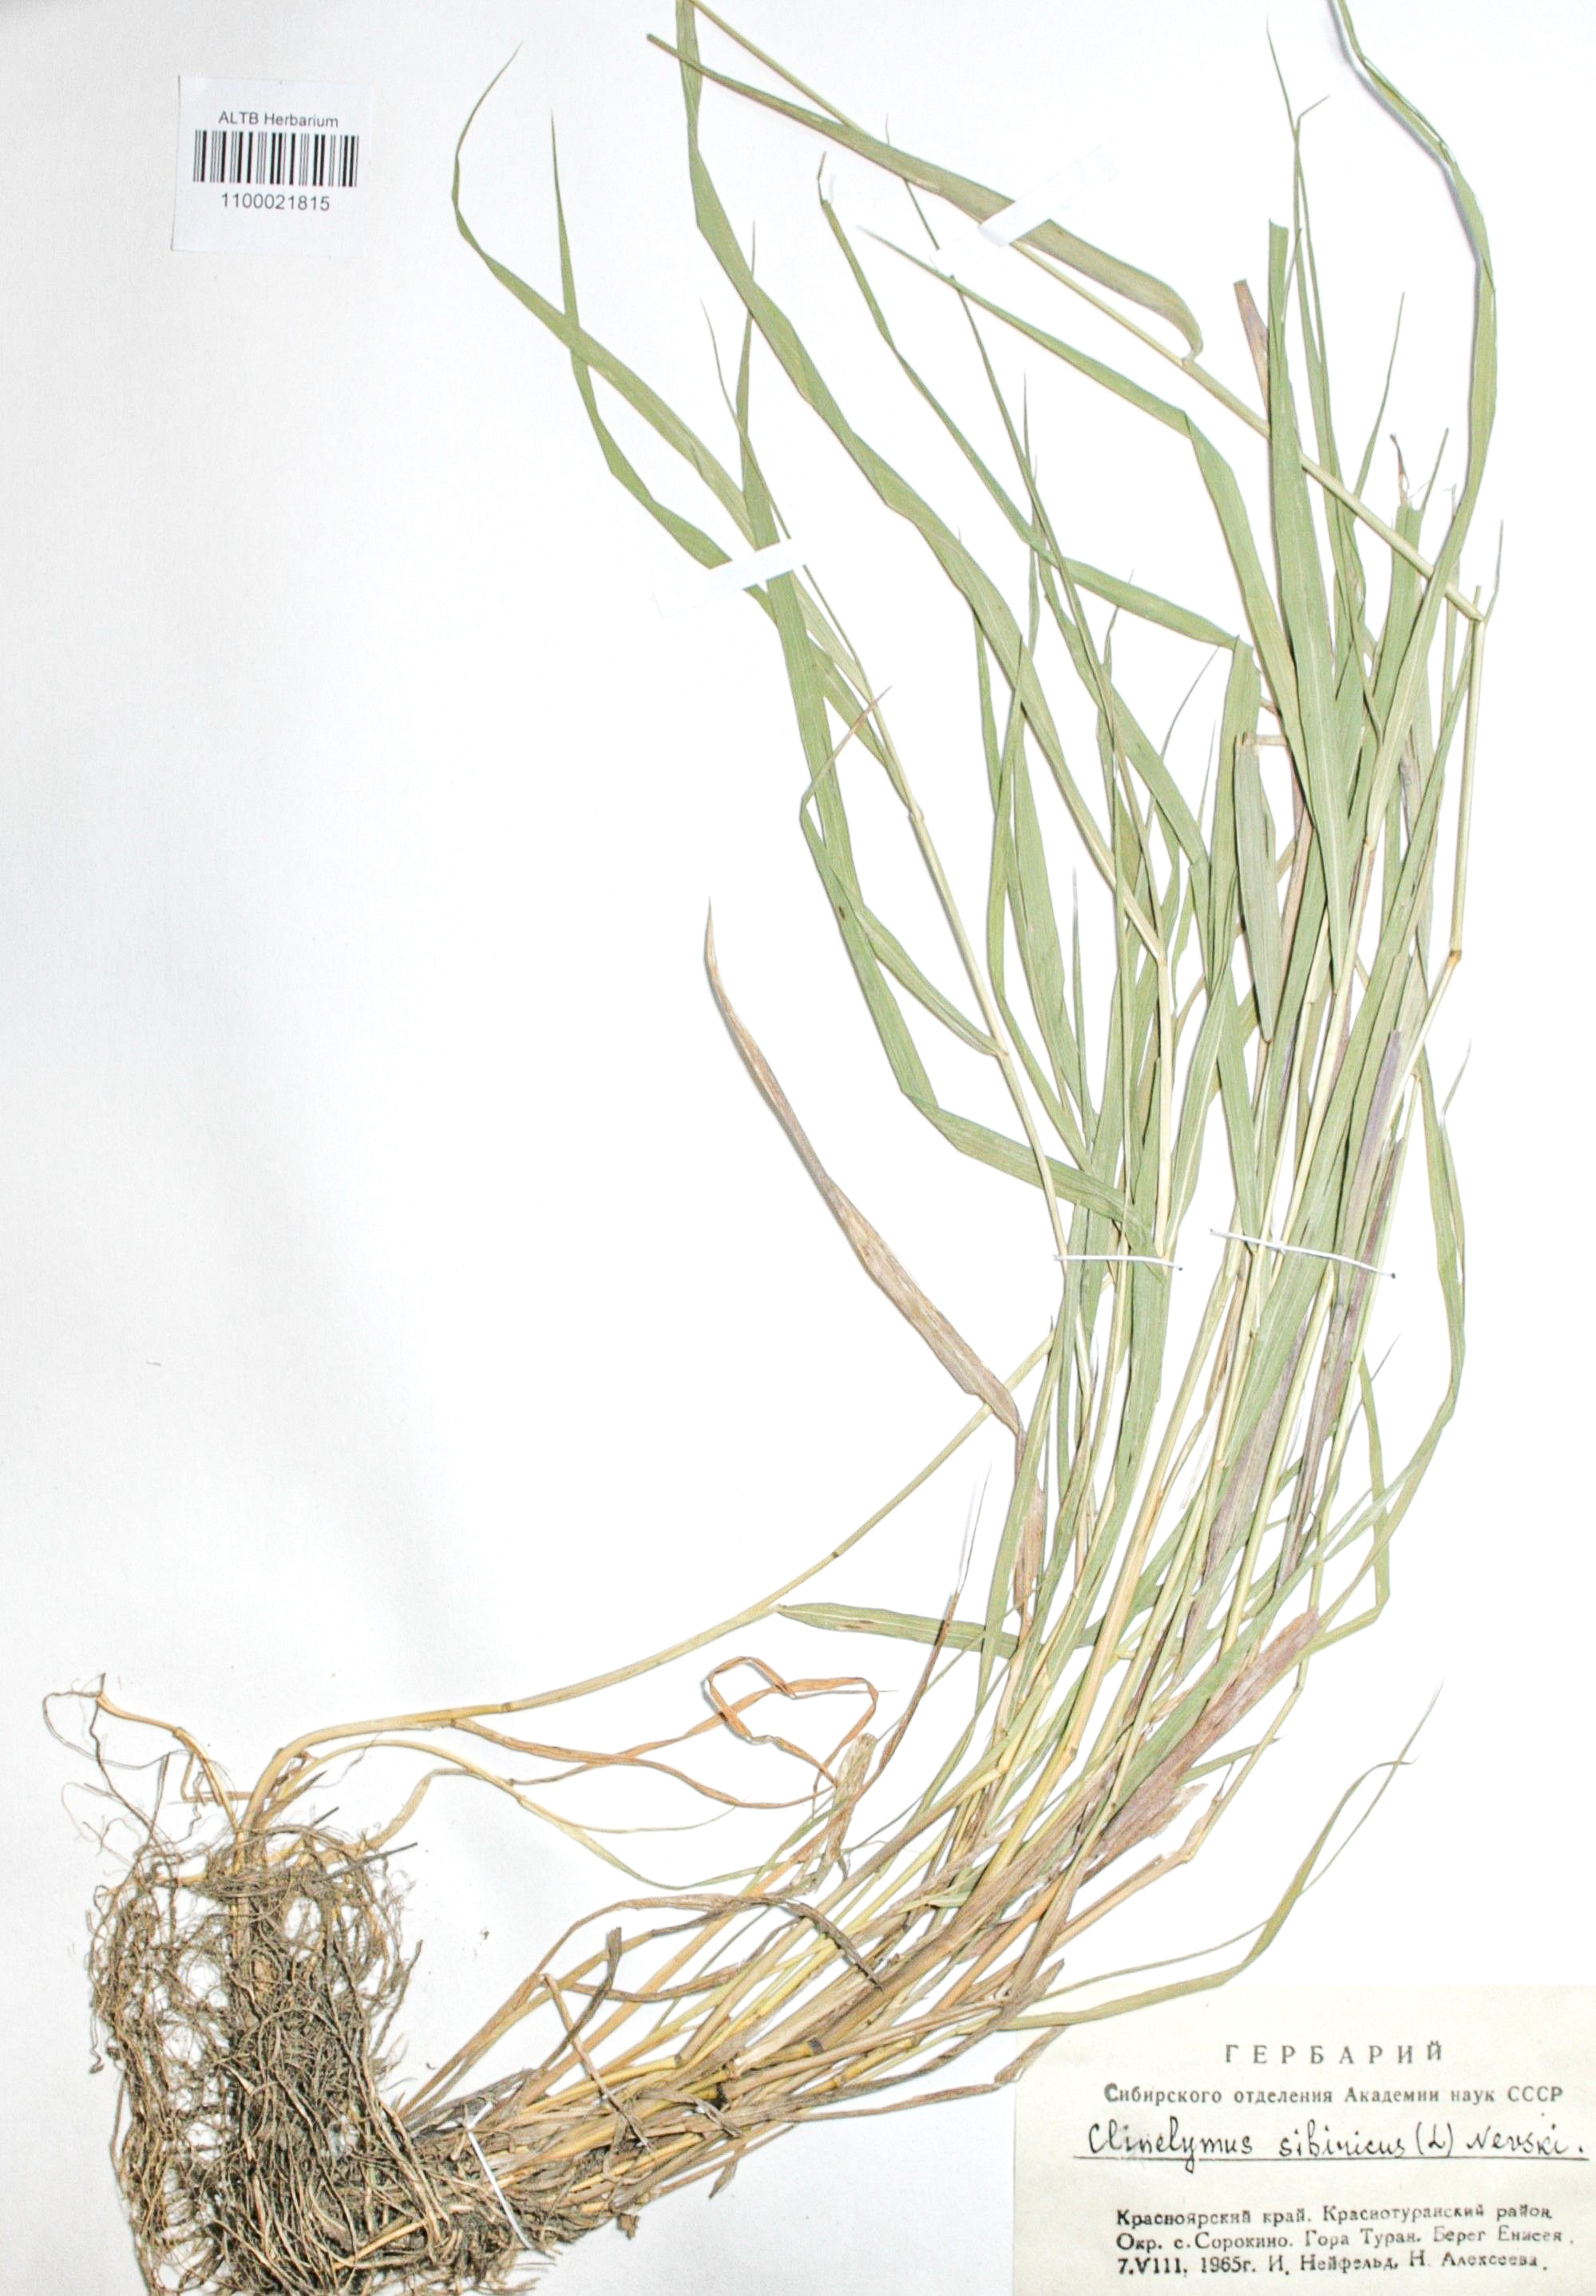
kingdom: Plantae
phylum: Tracheophyta
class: Liliopsida
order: Poales
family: Poaceae
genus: Elymus
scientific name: Elymus sibiricus
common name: Siberian wildrye
